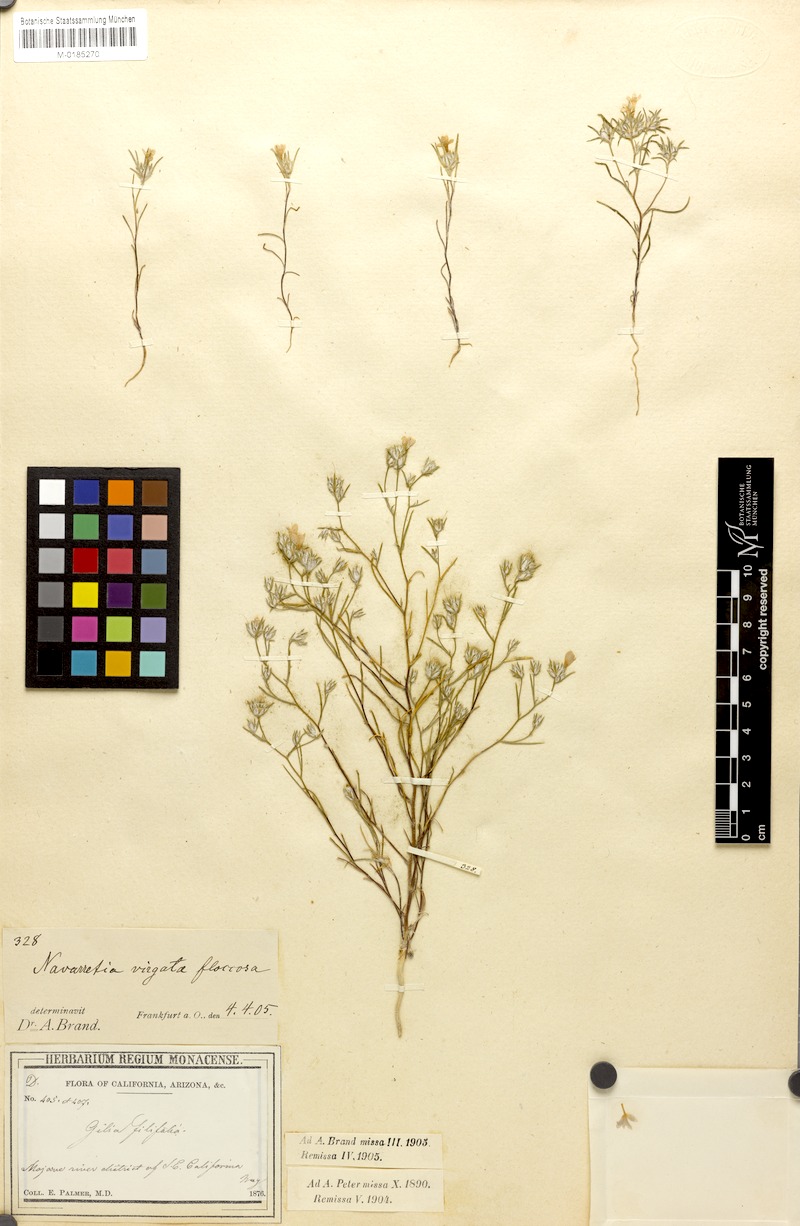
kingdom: Plantae
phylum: Tracheophyta
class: Magnoliopsida
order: Ericales
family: Polemoniaceae
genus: Eriastrum
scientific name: Eriastrum filifolium
